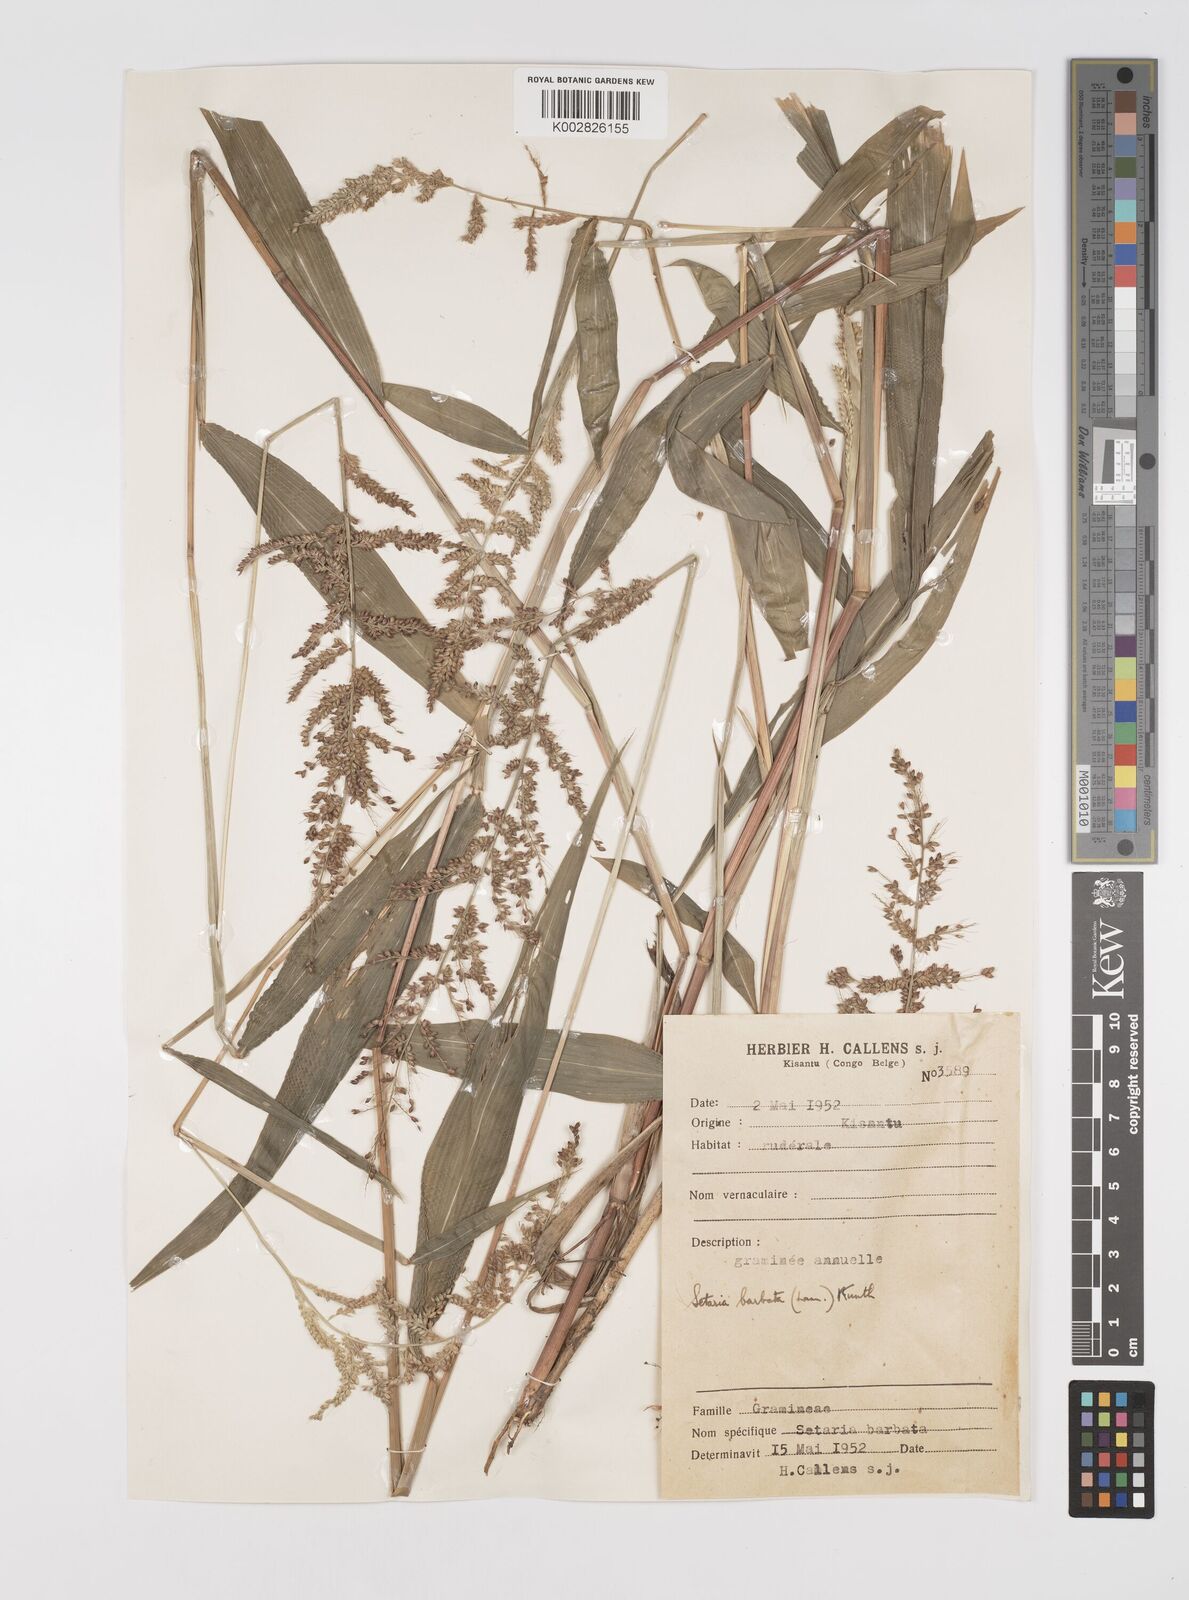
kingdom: Plantae
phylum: Tracheophyta
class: Liliopsida
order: Poales
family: Poaceae
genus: Setaria
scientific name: Setaria barbata
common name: East indian bristlegrass
